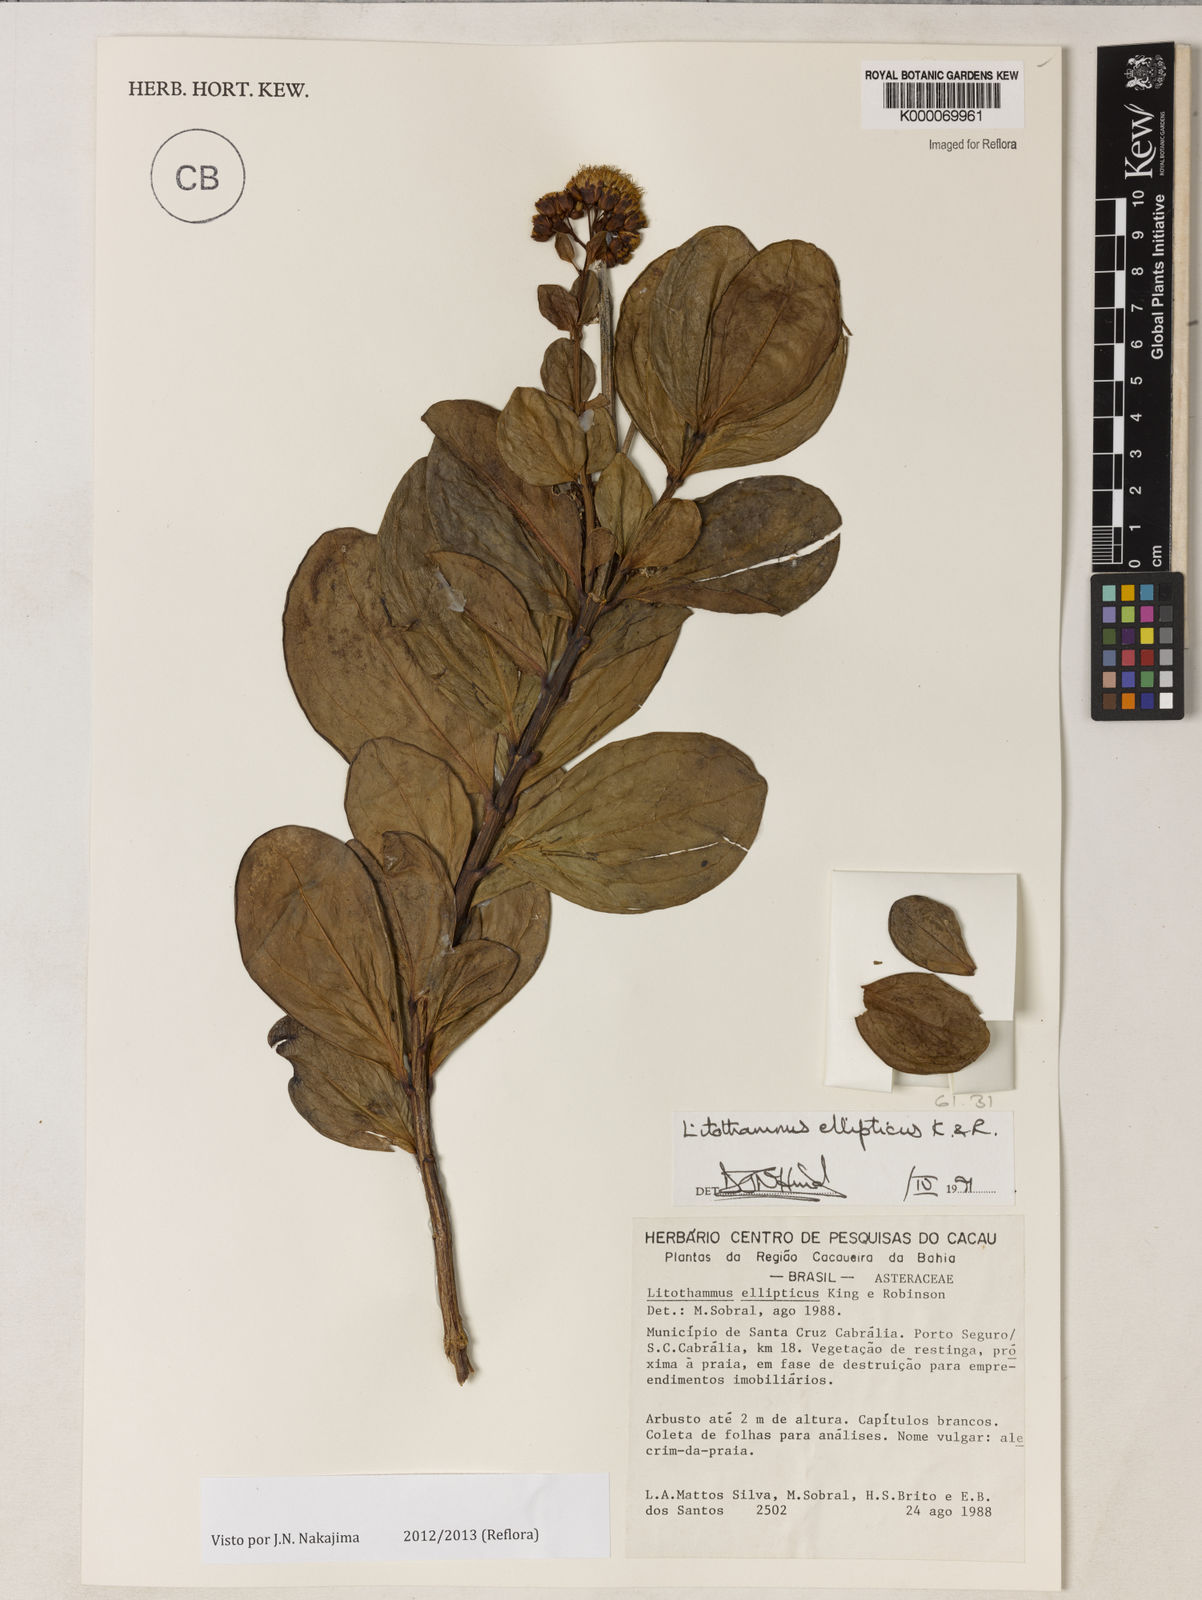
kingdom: Plantae
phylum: Tracheophyta
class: Magnoliopsida
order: Asterales
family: Asteraceae
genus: Litothamnus
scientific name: Litothamnus ellipticus
